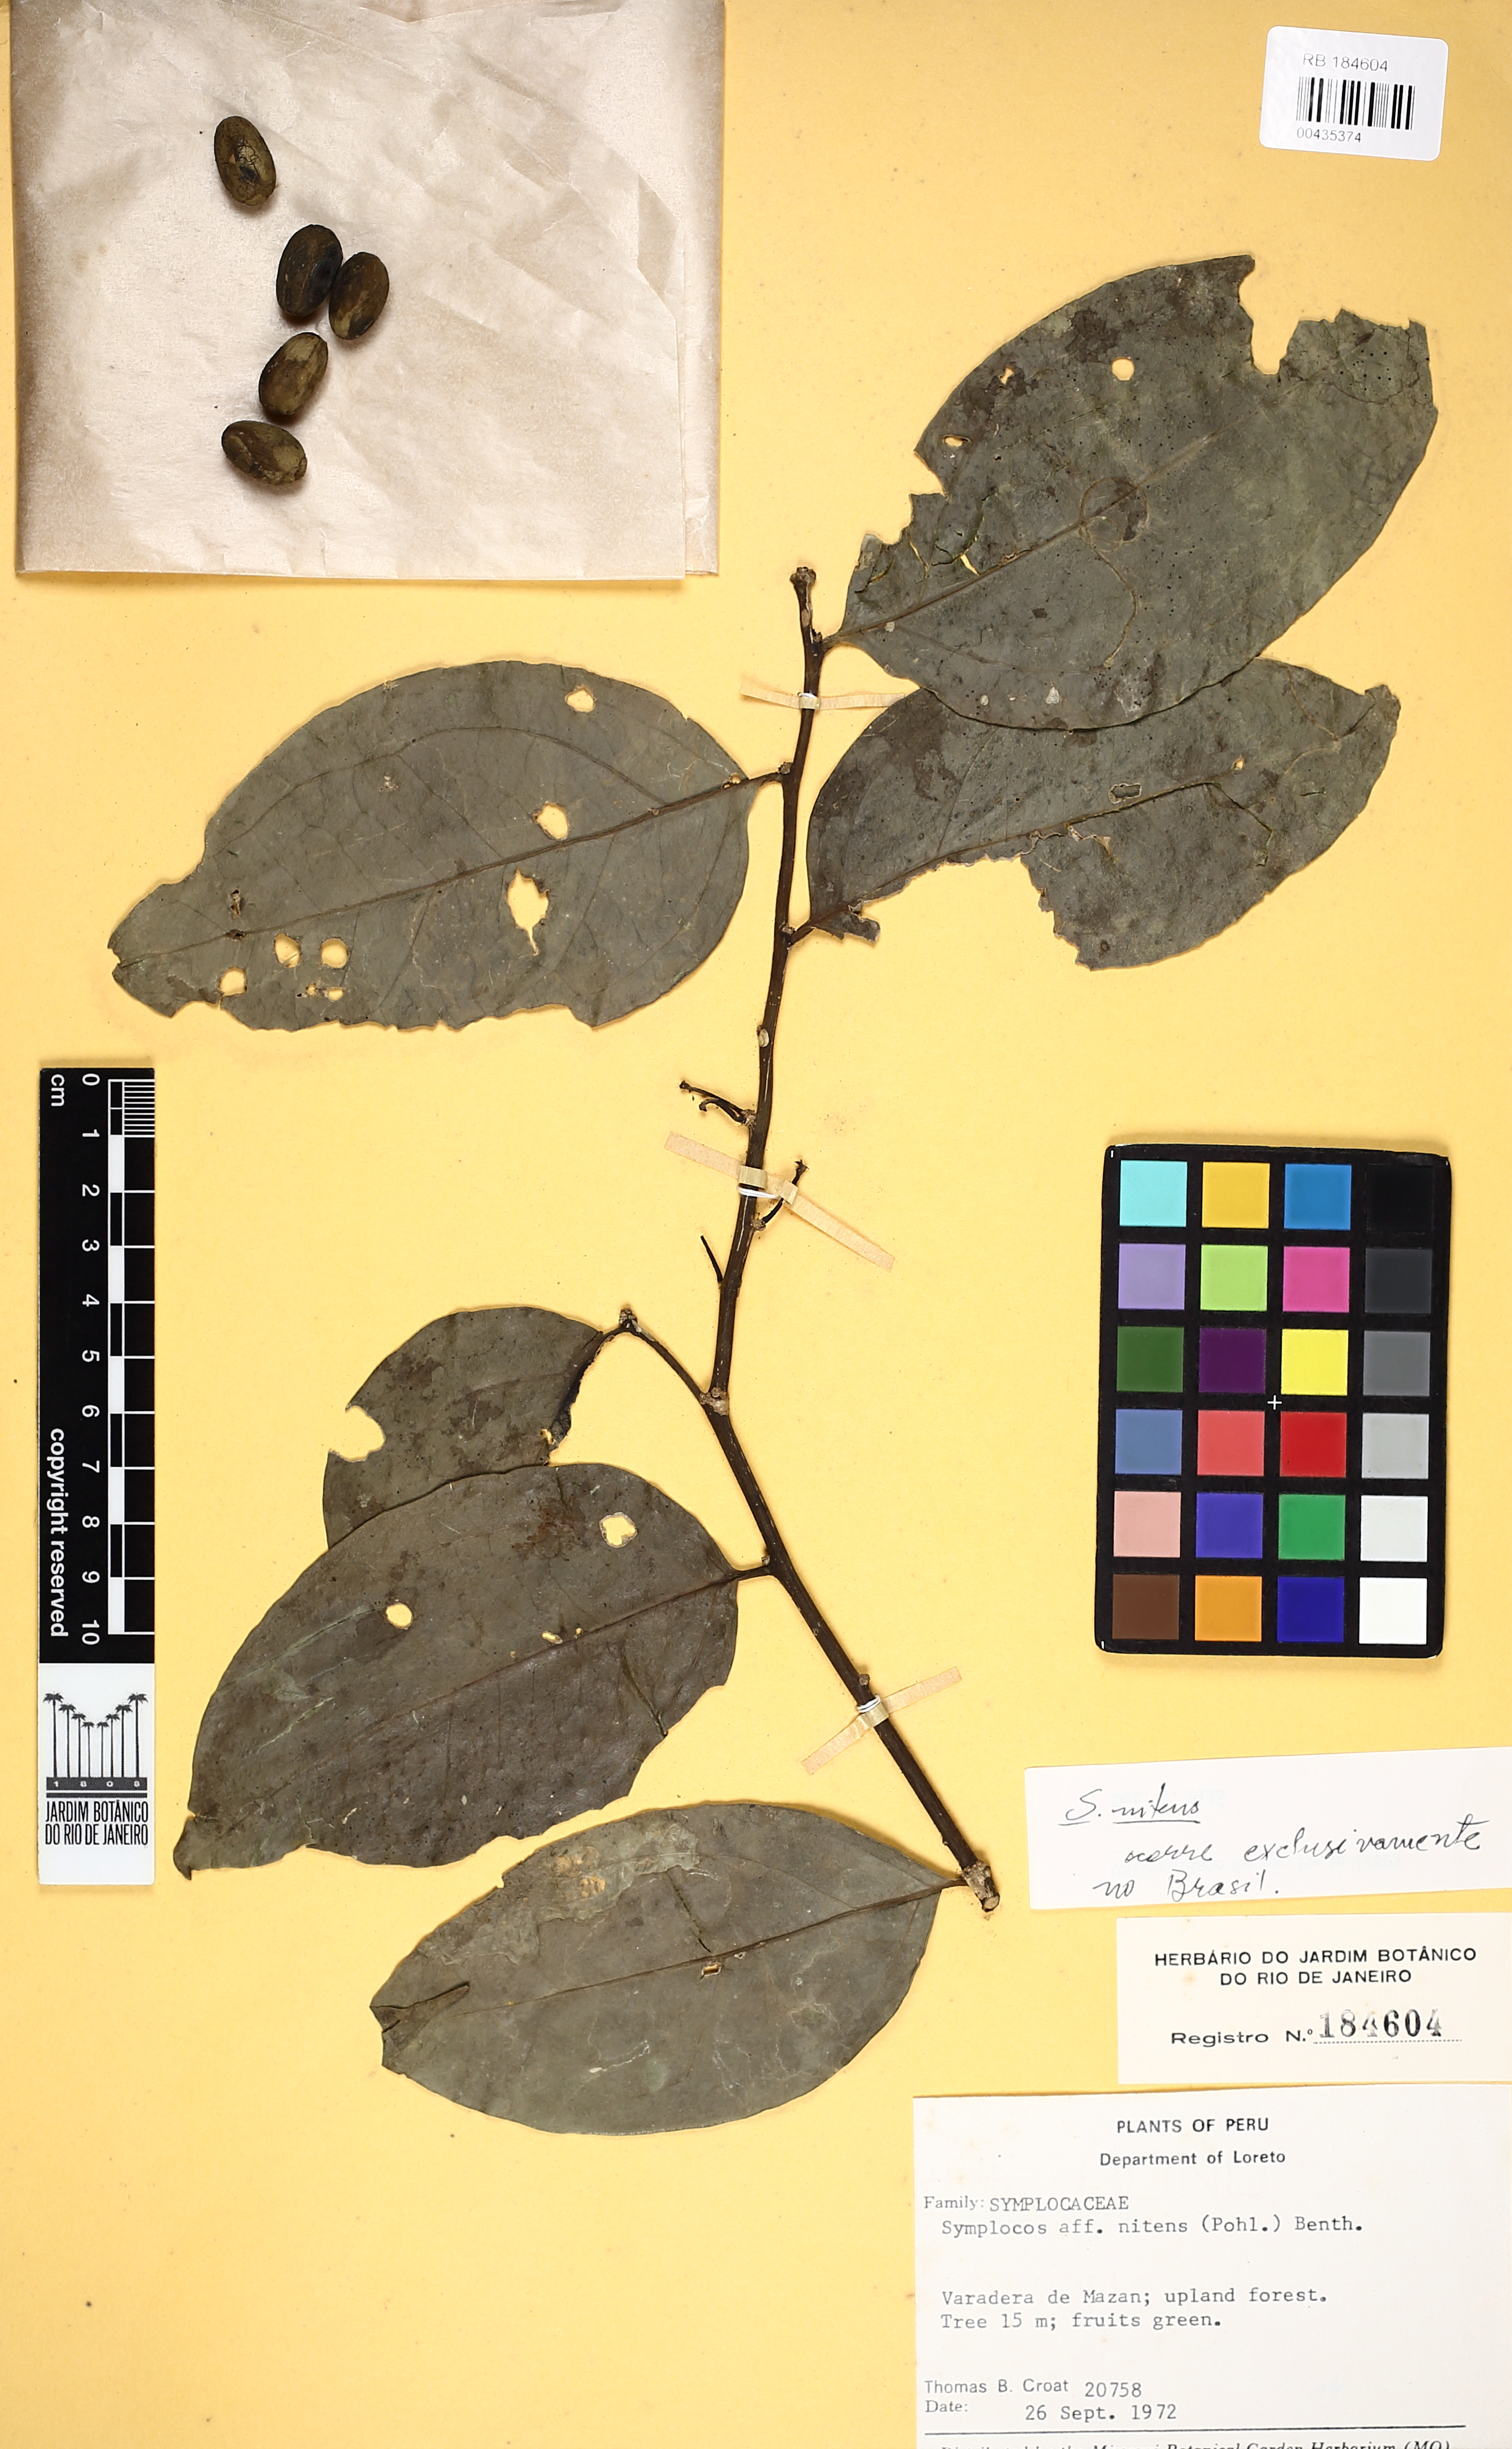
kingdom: Plantae
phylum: Tracheophyta
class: Magnoliopsida
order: Ericales
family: Symplocaceae
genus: Symplocos
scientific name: Symplocos nitens
